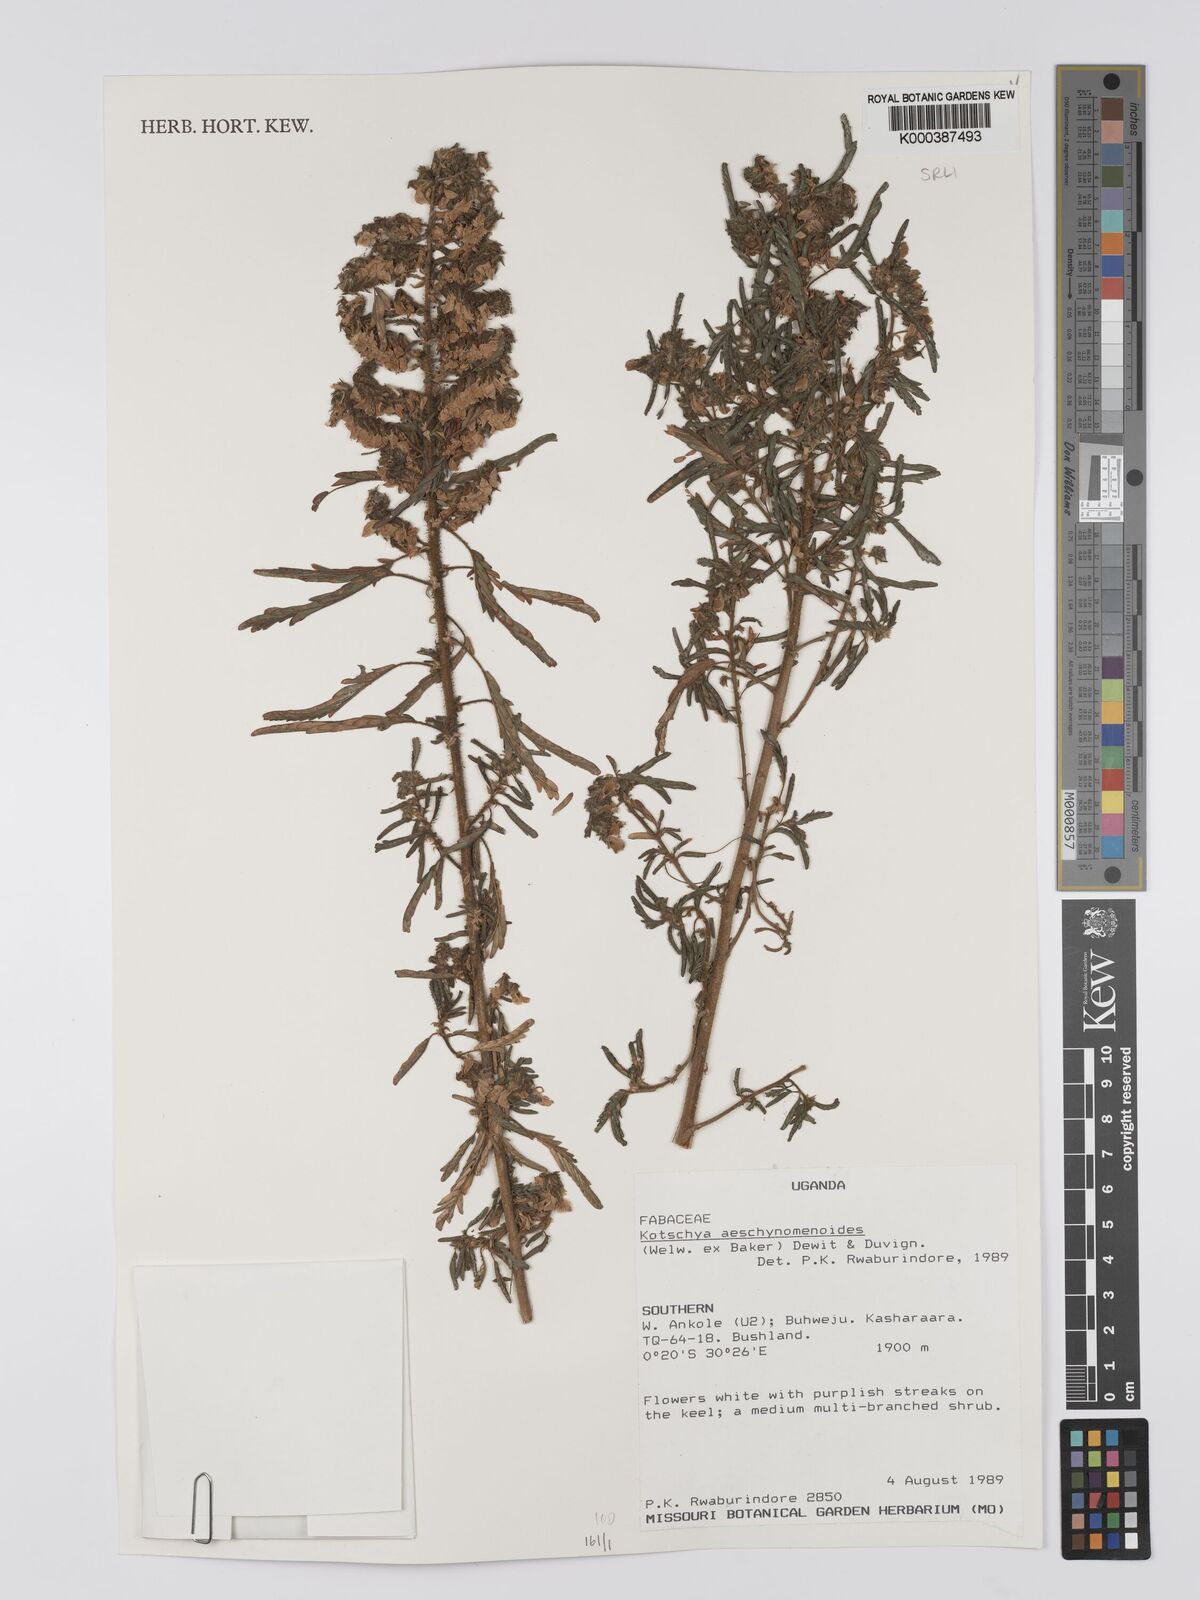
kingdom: Plantae
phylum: Tracheophyta
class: Magnoliopsida
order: Fabales
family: Fabaceae
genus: Kotschya
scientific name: Kotschya aeschynomenoides
